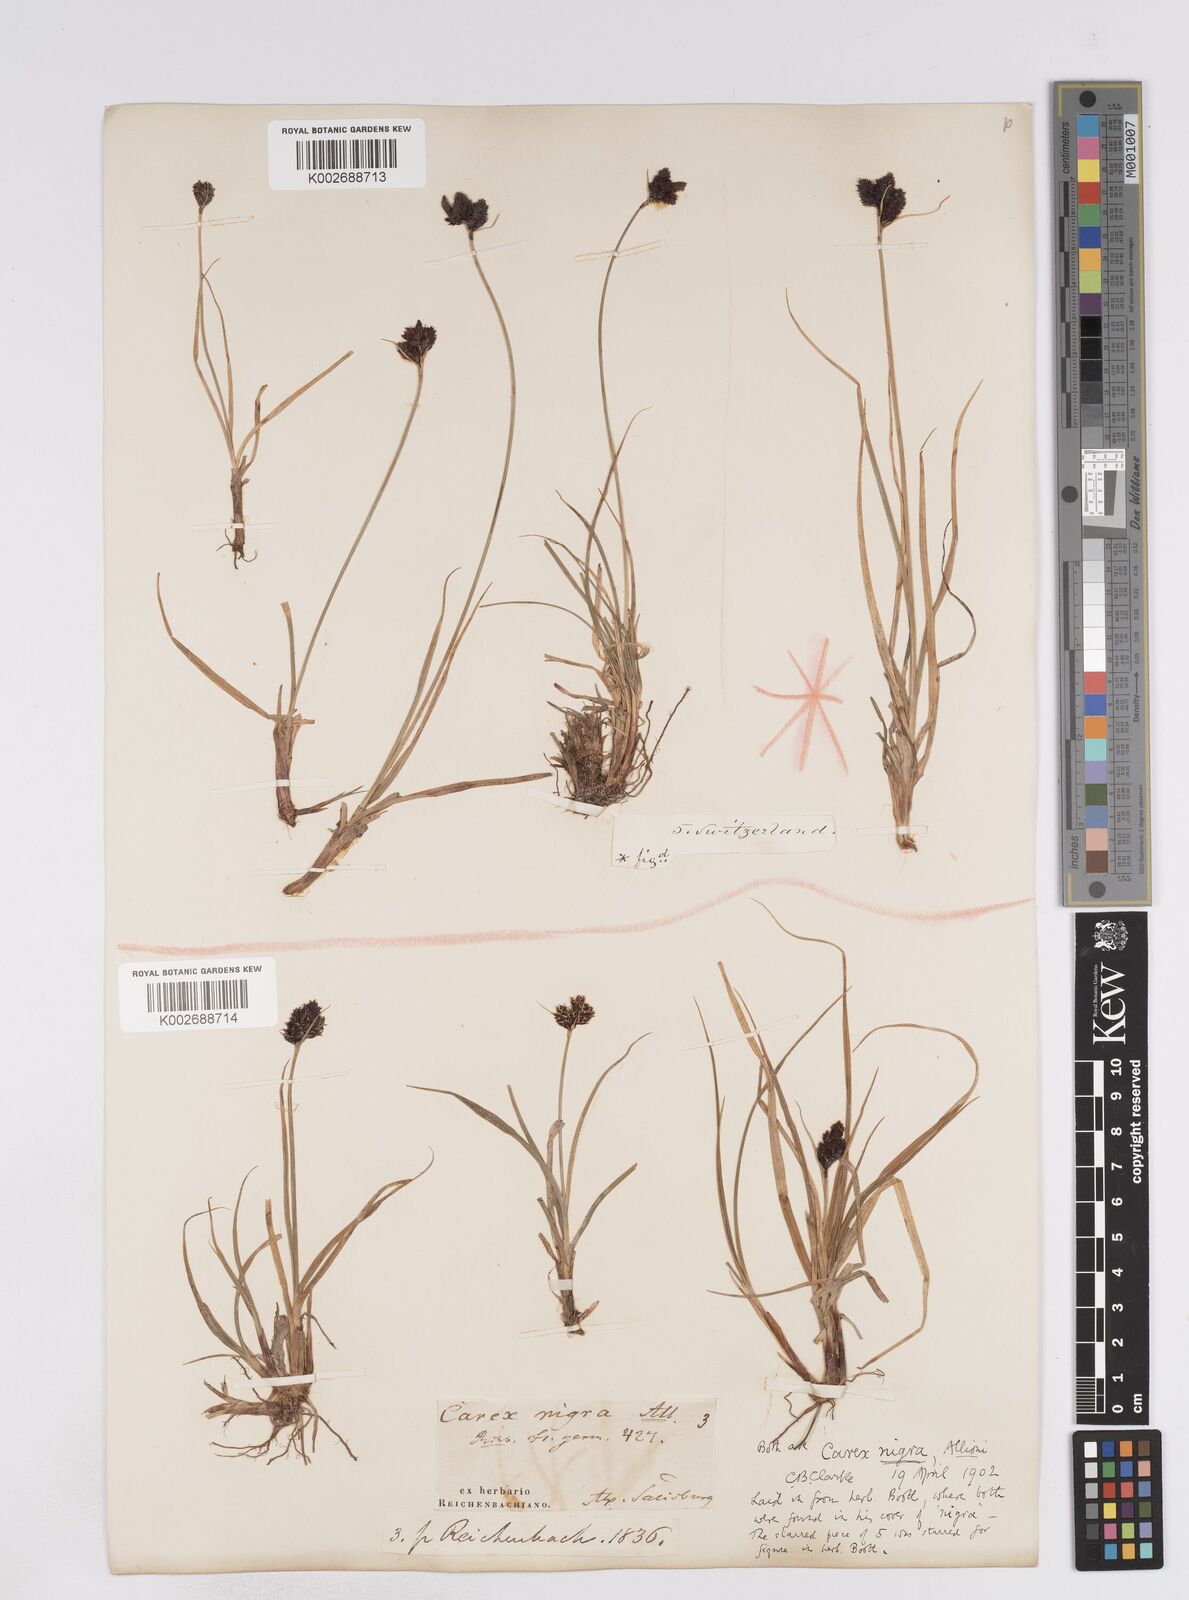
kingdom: Plantae
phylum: Tracheophyta
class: Liliopsida
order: Poales
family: Cyperaceae
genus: Carex
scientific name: Carex parviflora
